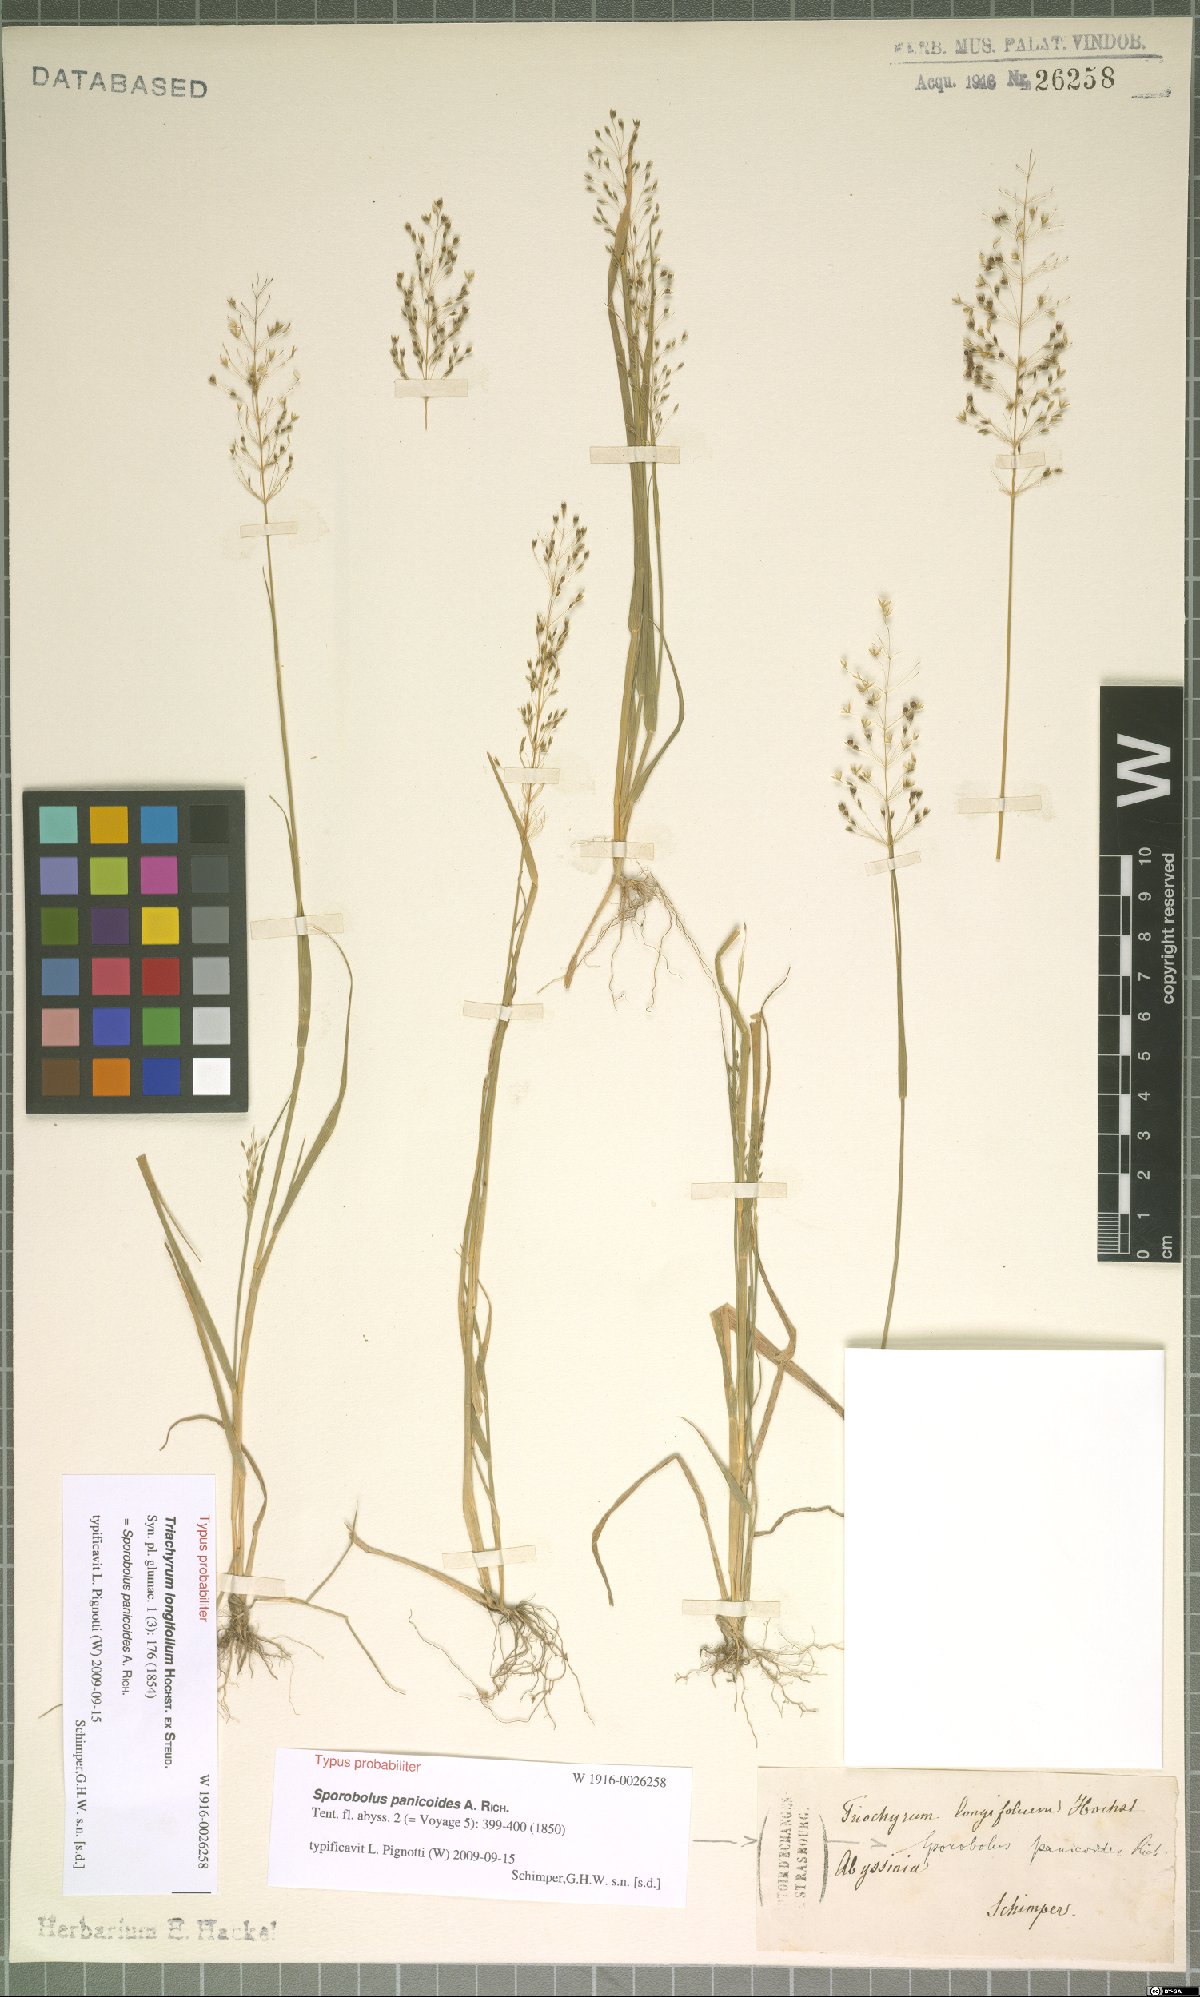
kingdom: Plantae
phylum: Tracheophyta
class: Liliopsida
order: Poales
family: Poaceae
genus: Sporobolus
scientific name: Sporobolus panicoides
